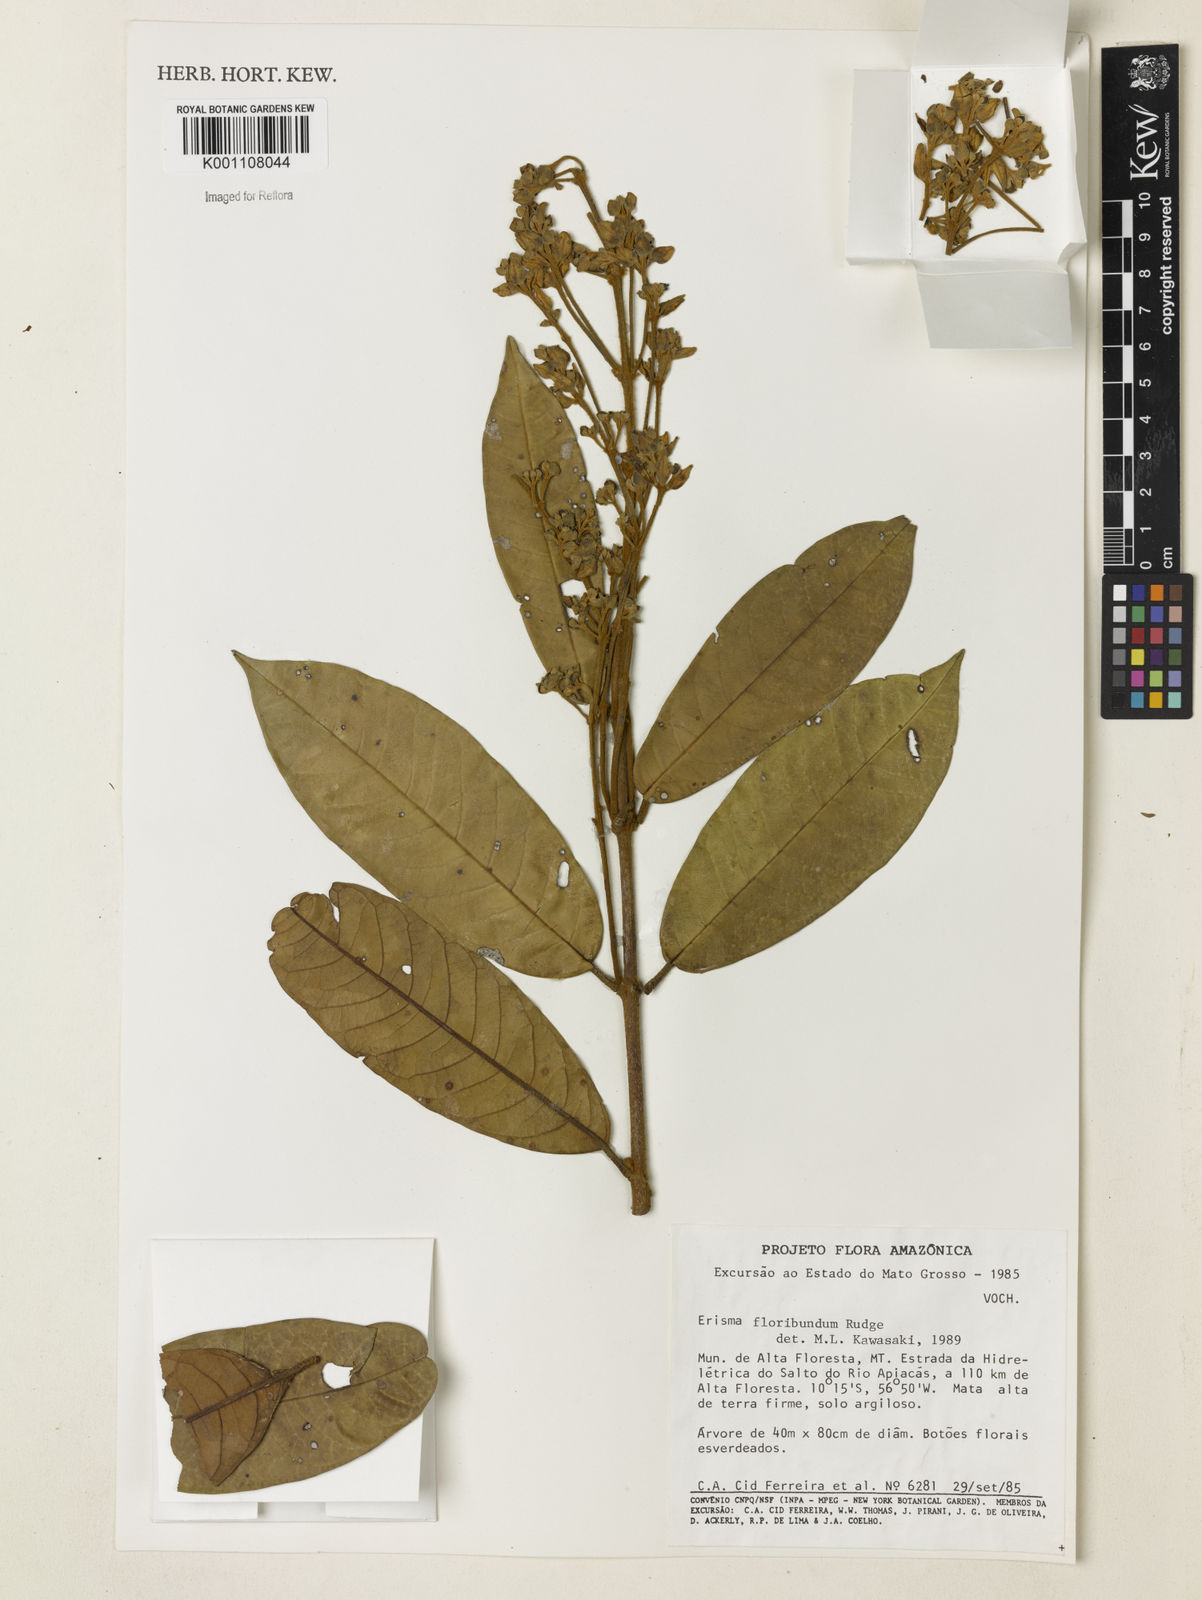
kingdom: Plantae
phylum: Tracheophyta
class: Magnoliopsida
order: Myrtales
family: Vochysiaceae
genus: Erisma
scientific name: Erisma
